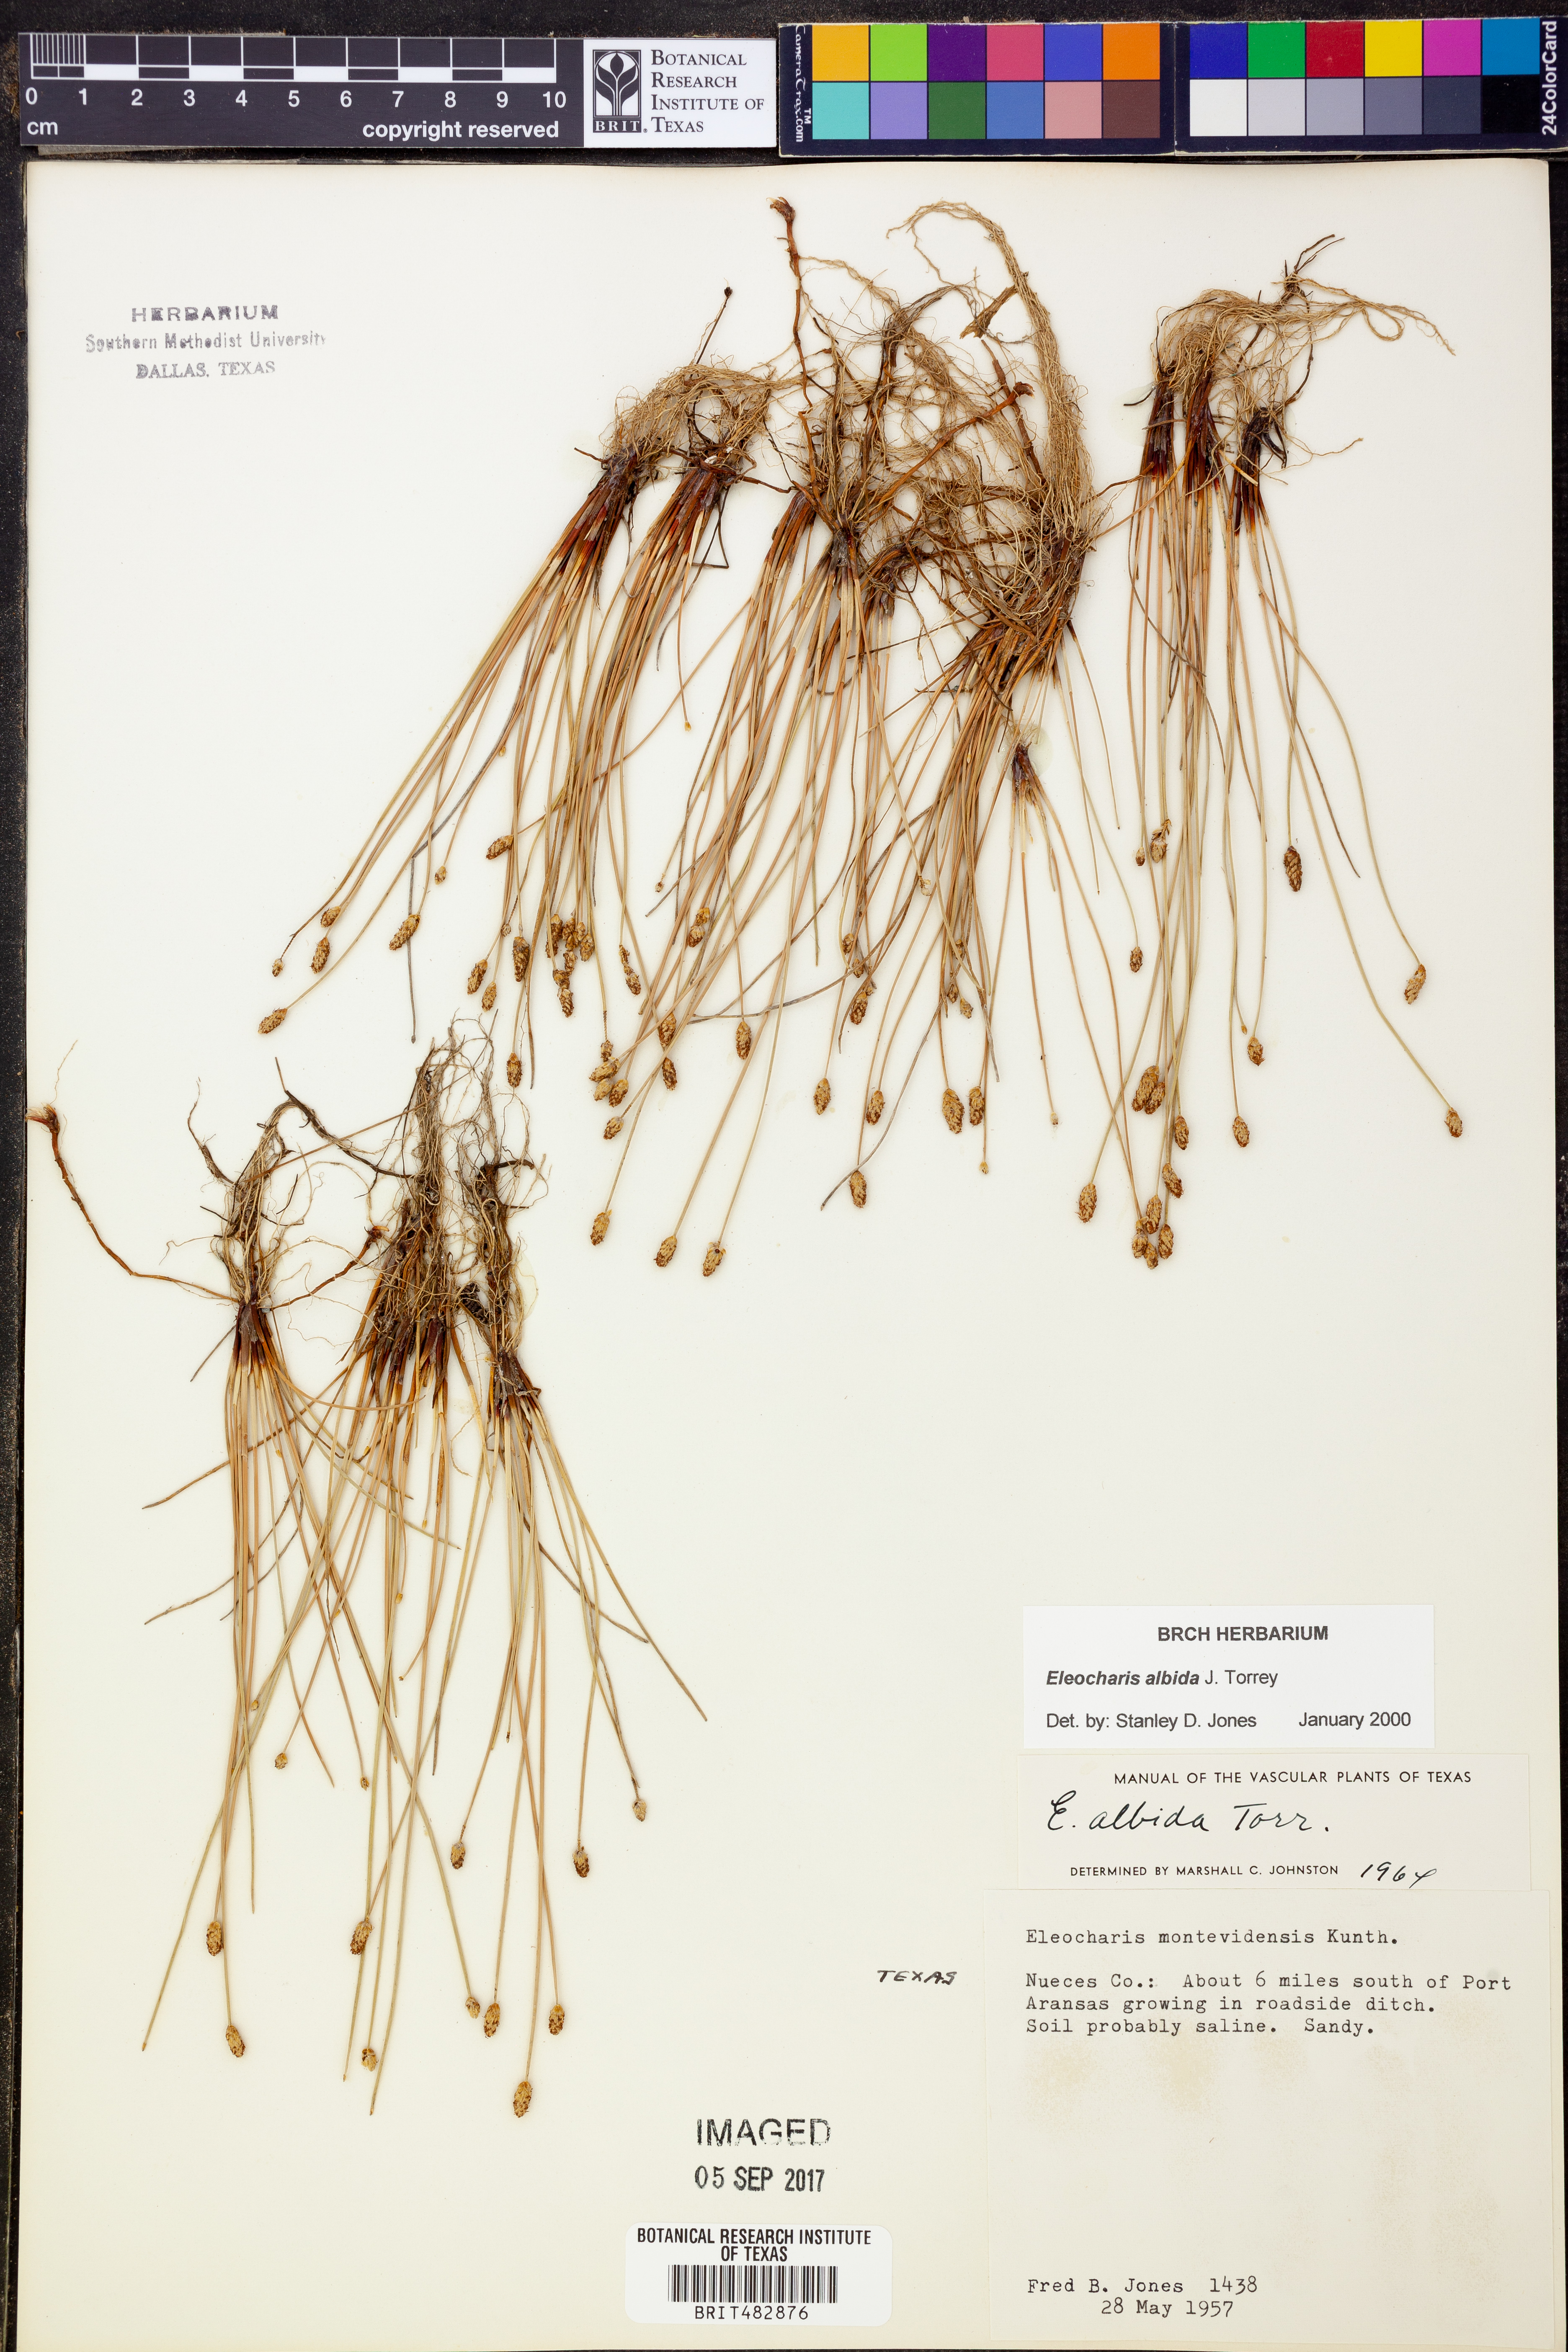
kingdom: Plantae
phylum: Tracheophyta
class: Liliopsida
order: Poales
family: Cyperaceae
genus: Eleocharis
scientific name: Eleocharis albida
